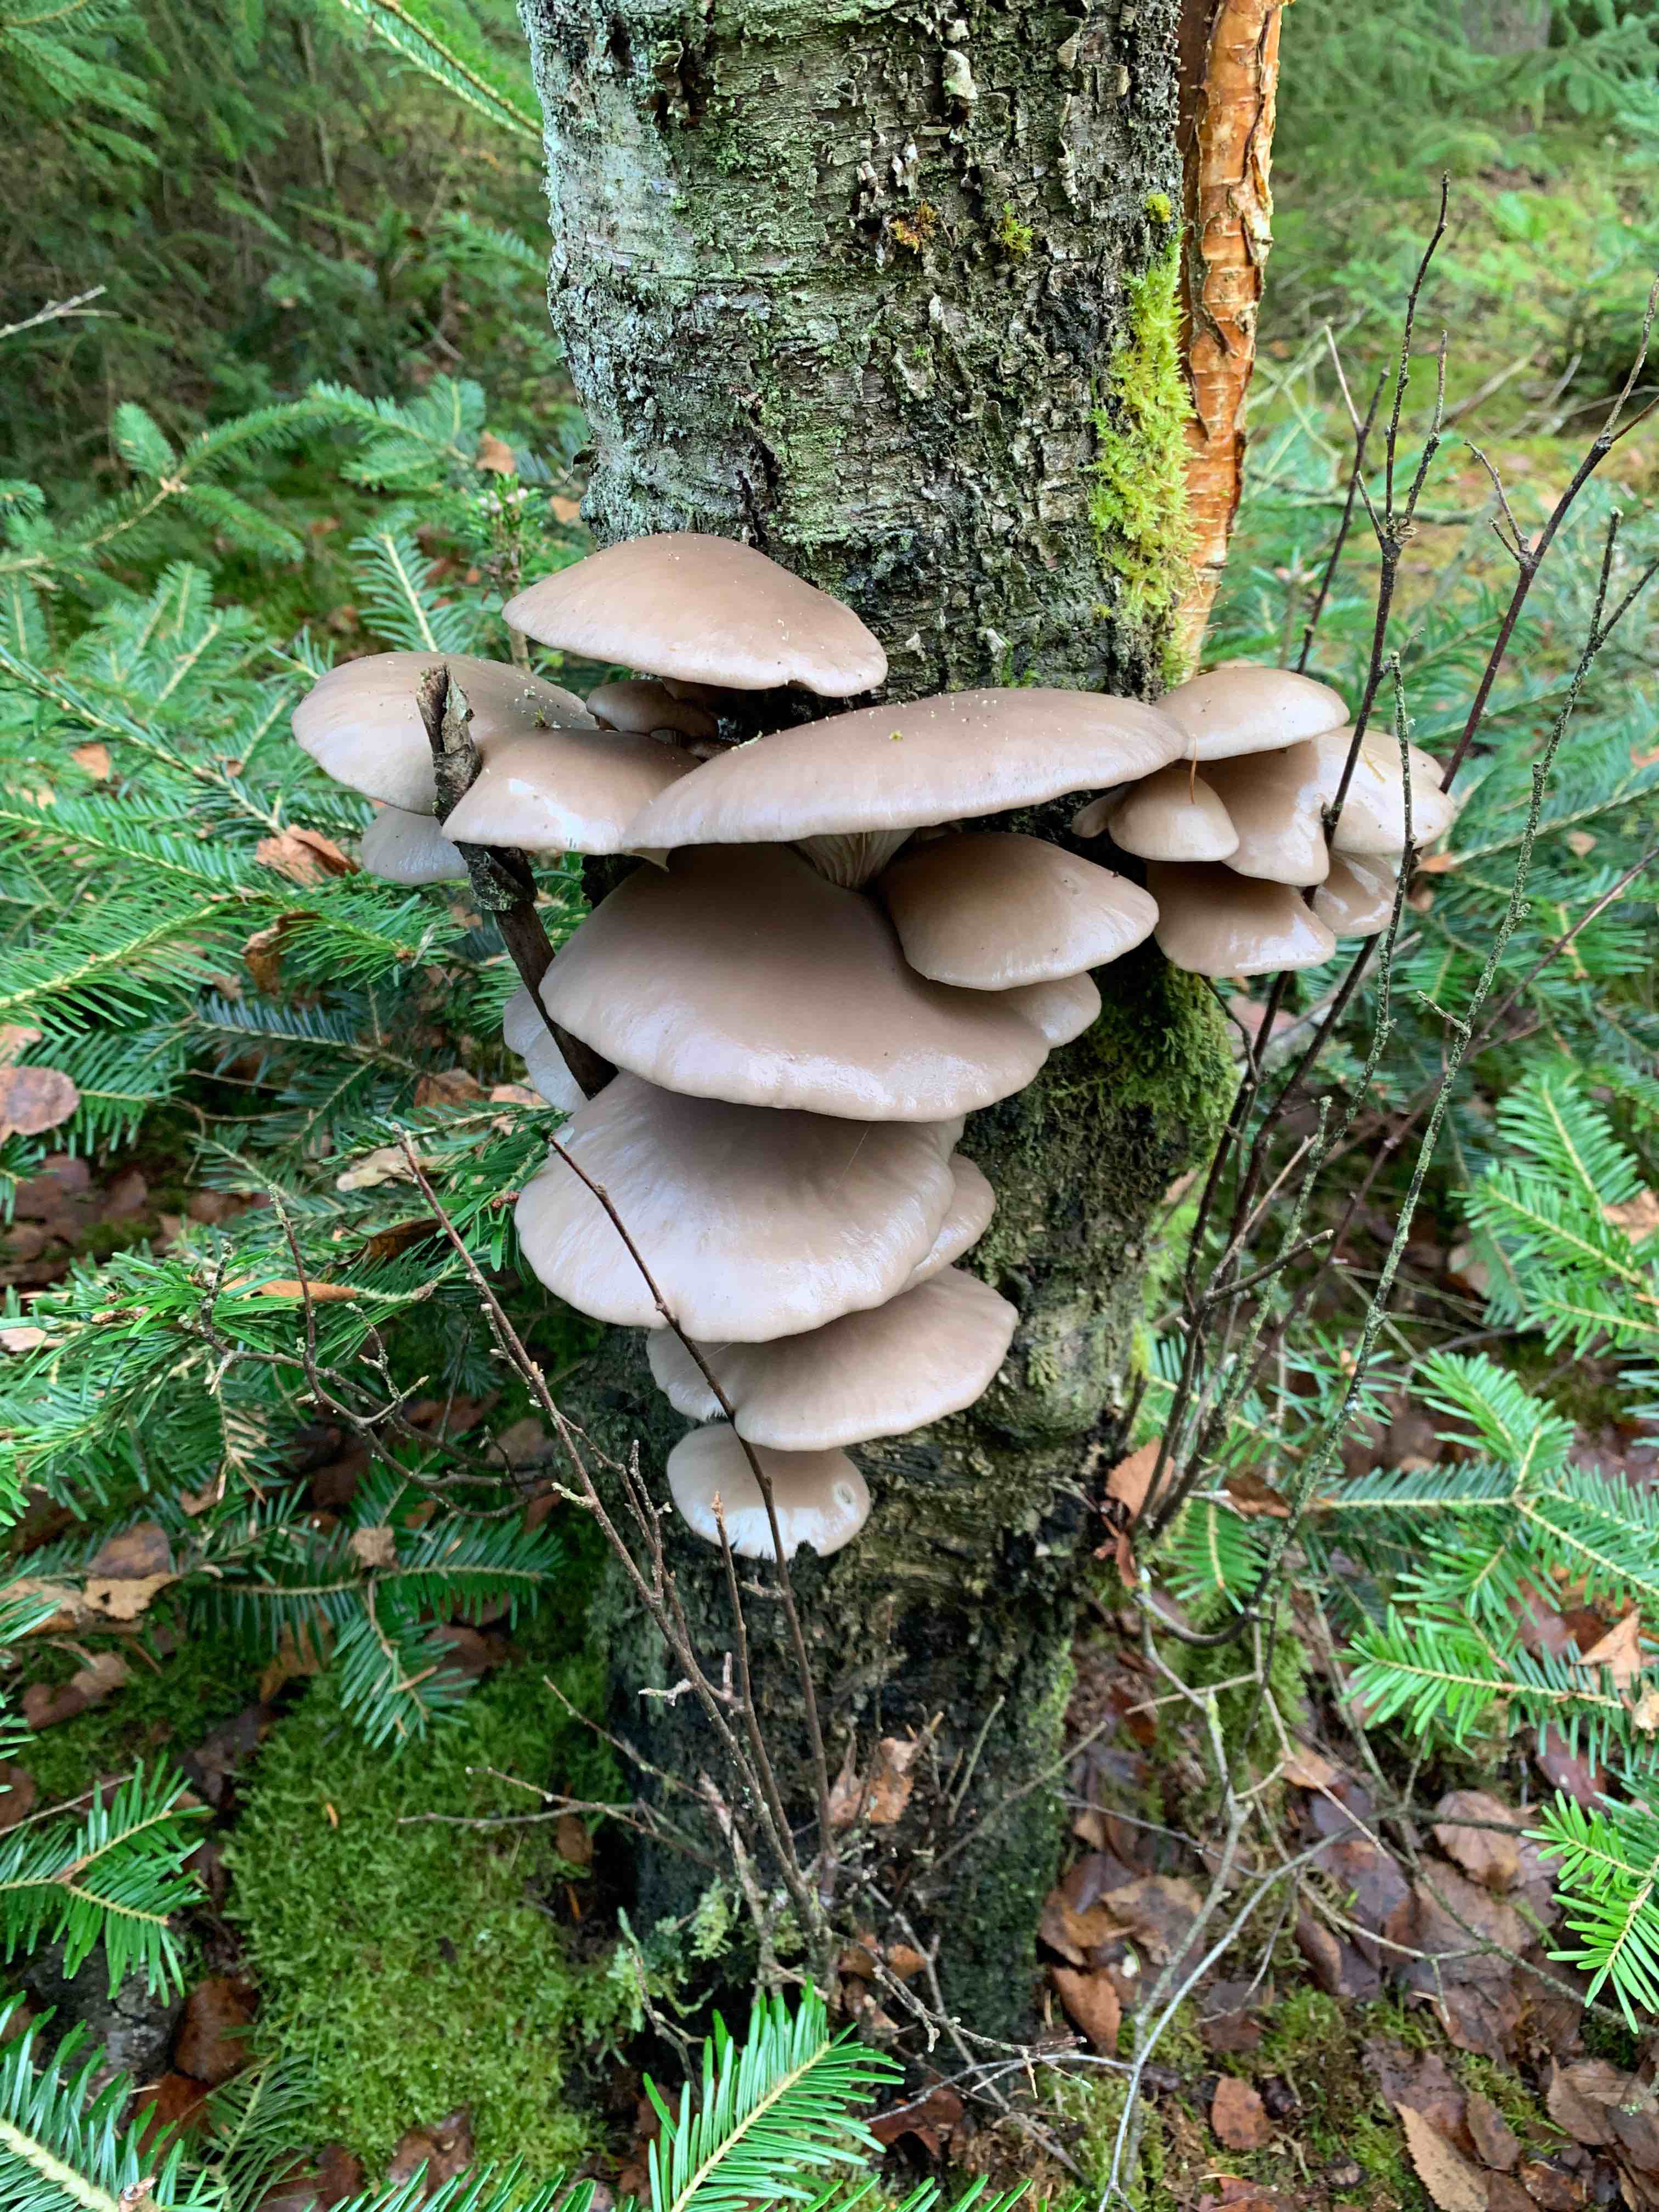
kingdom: Fungi
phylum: Basidiomycota
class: Agaricomycetes
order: Agaricales
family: Pleurotaceae
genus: Pleurotus
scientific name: Pleurotus ostreatus
